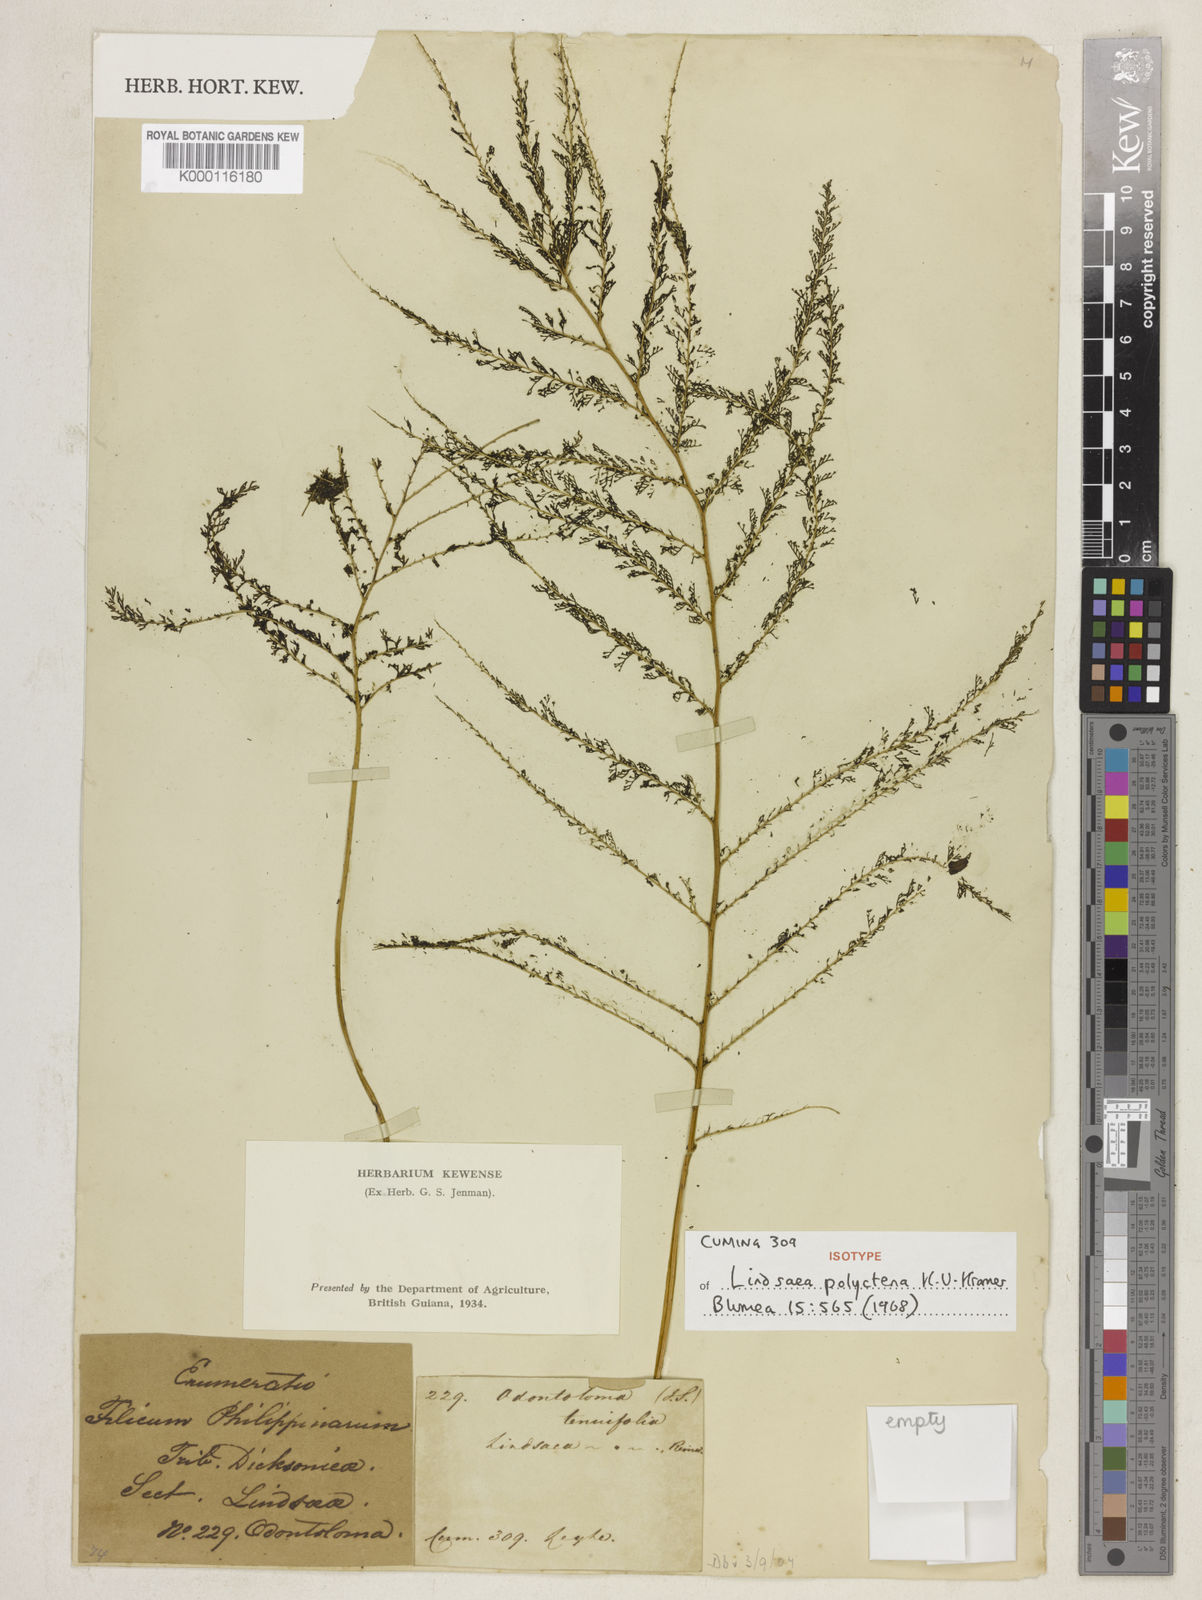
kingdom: Plantae
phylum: Tracheophyta
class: Polypodiopsida
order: Polypodiales
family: Lindsaeaceae
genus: Lindsaea
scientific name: Lindsaea tenuifolia
